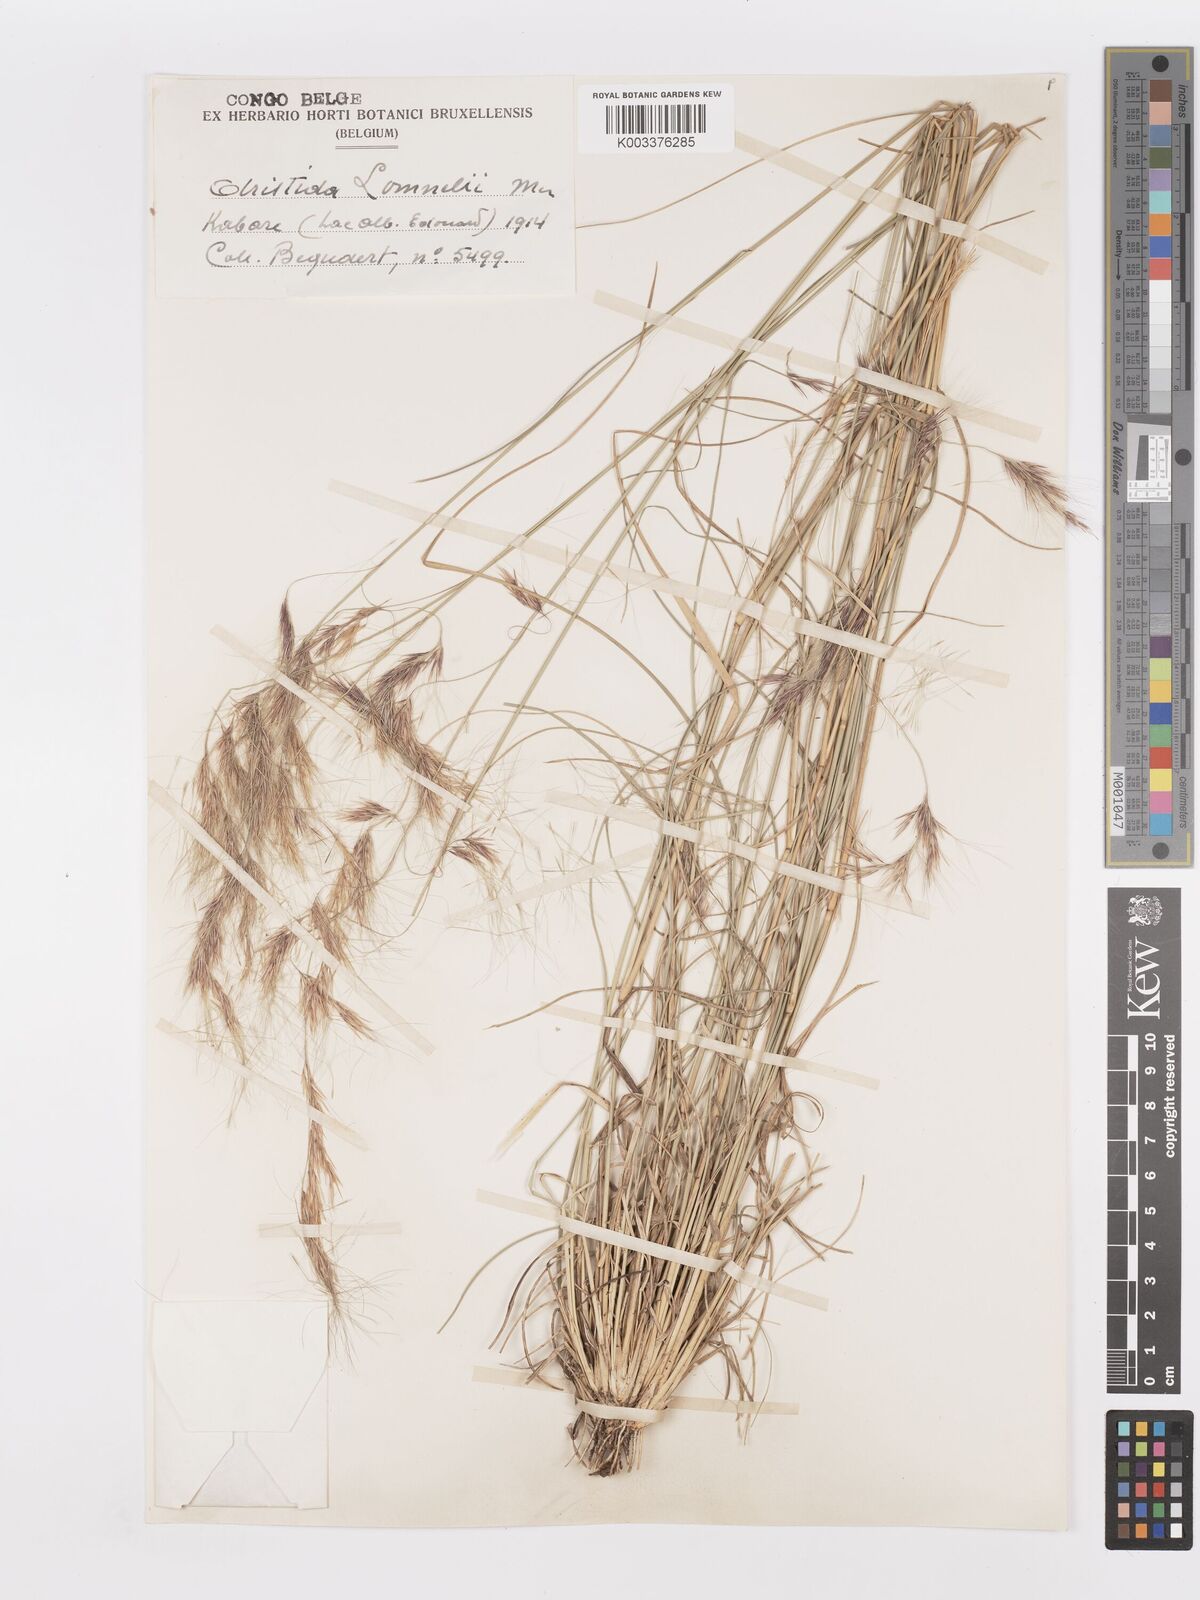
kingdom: Plantae
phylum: Tracheophyta
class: Liliopsida
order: Poales
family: Poaceae
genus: Aristida
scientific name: Aristida barbicollis
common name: Spreading prickle grass
